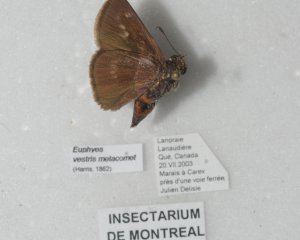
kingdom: Animalia
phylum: Arthropoda
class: Insecta
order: Lepidoptera
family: Hesperiidae
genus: Euphyes
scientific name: Euphyes vestris
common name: Dun Skipper
